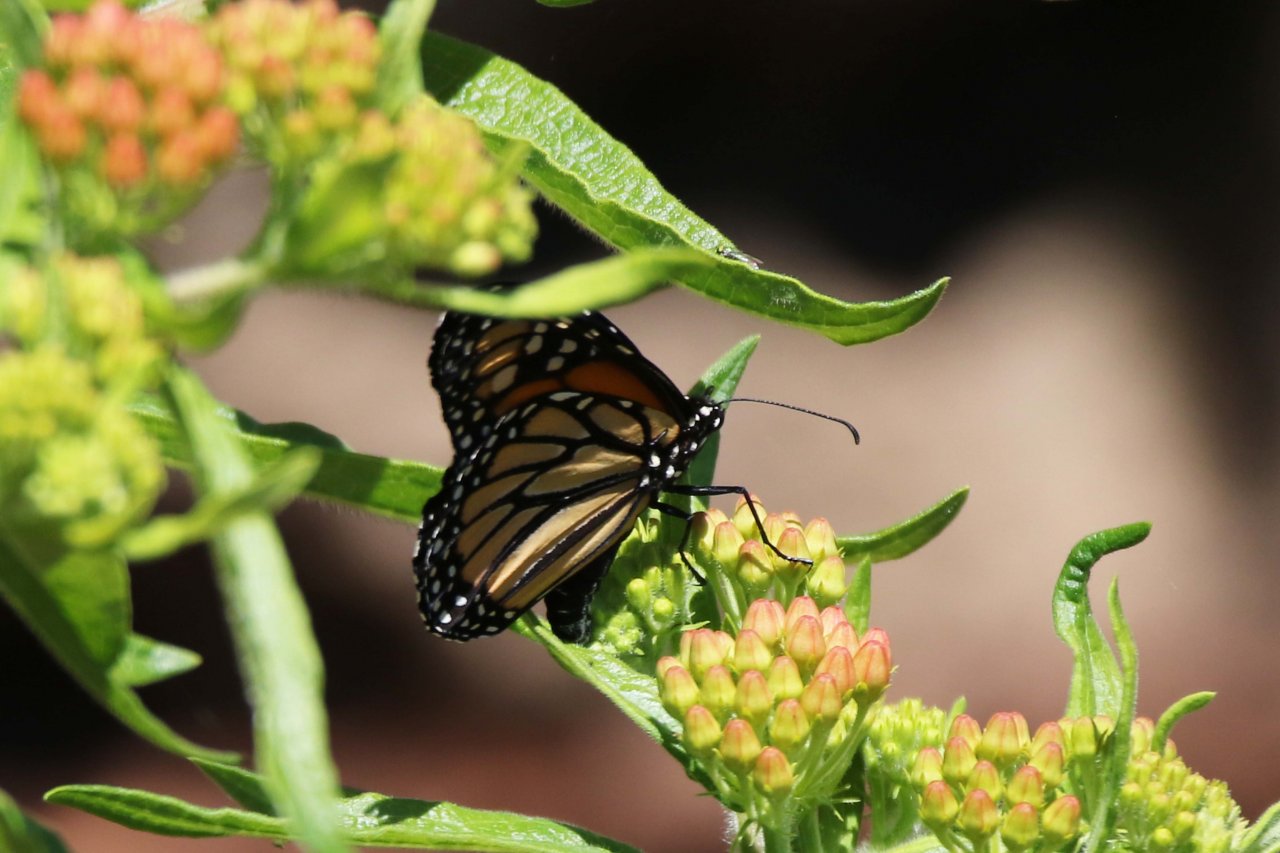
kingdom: Animalia
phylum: Arthropoda
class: Insecta
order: Lepidoptera
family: Nymphalidae
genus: Danaus
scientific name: Danaus plexippus
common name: Monarch
